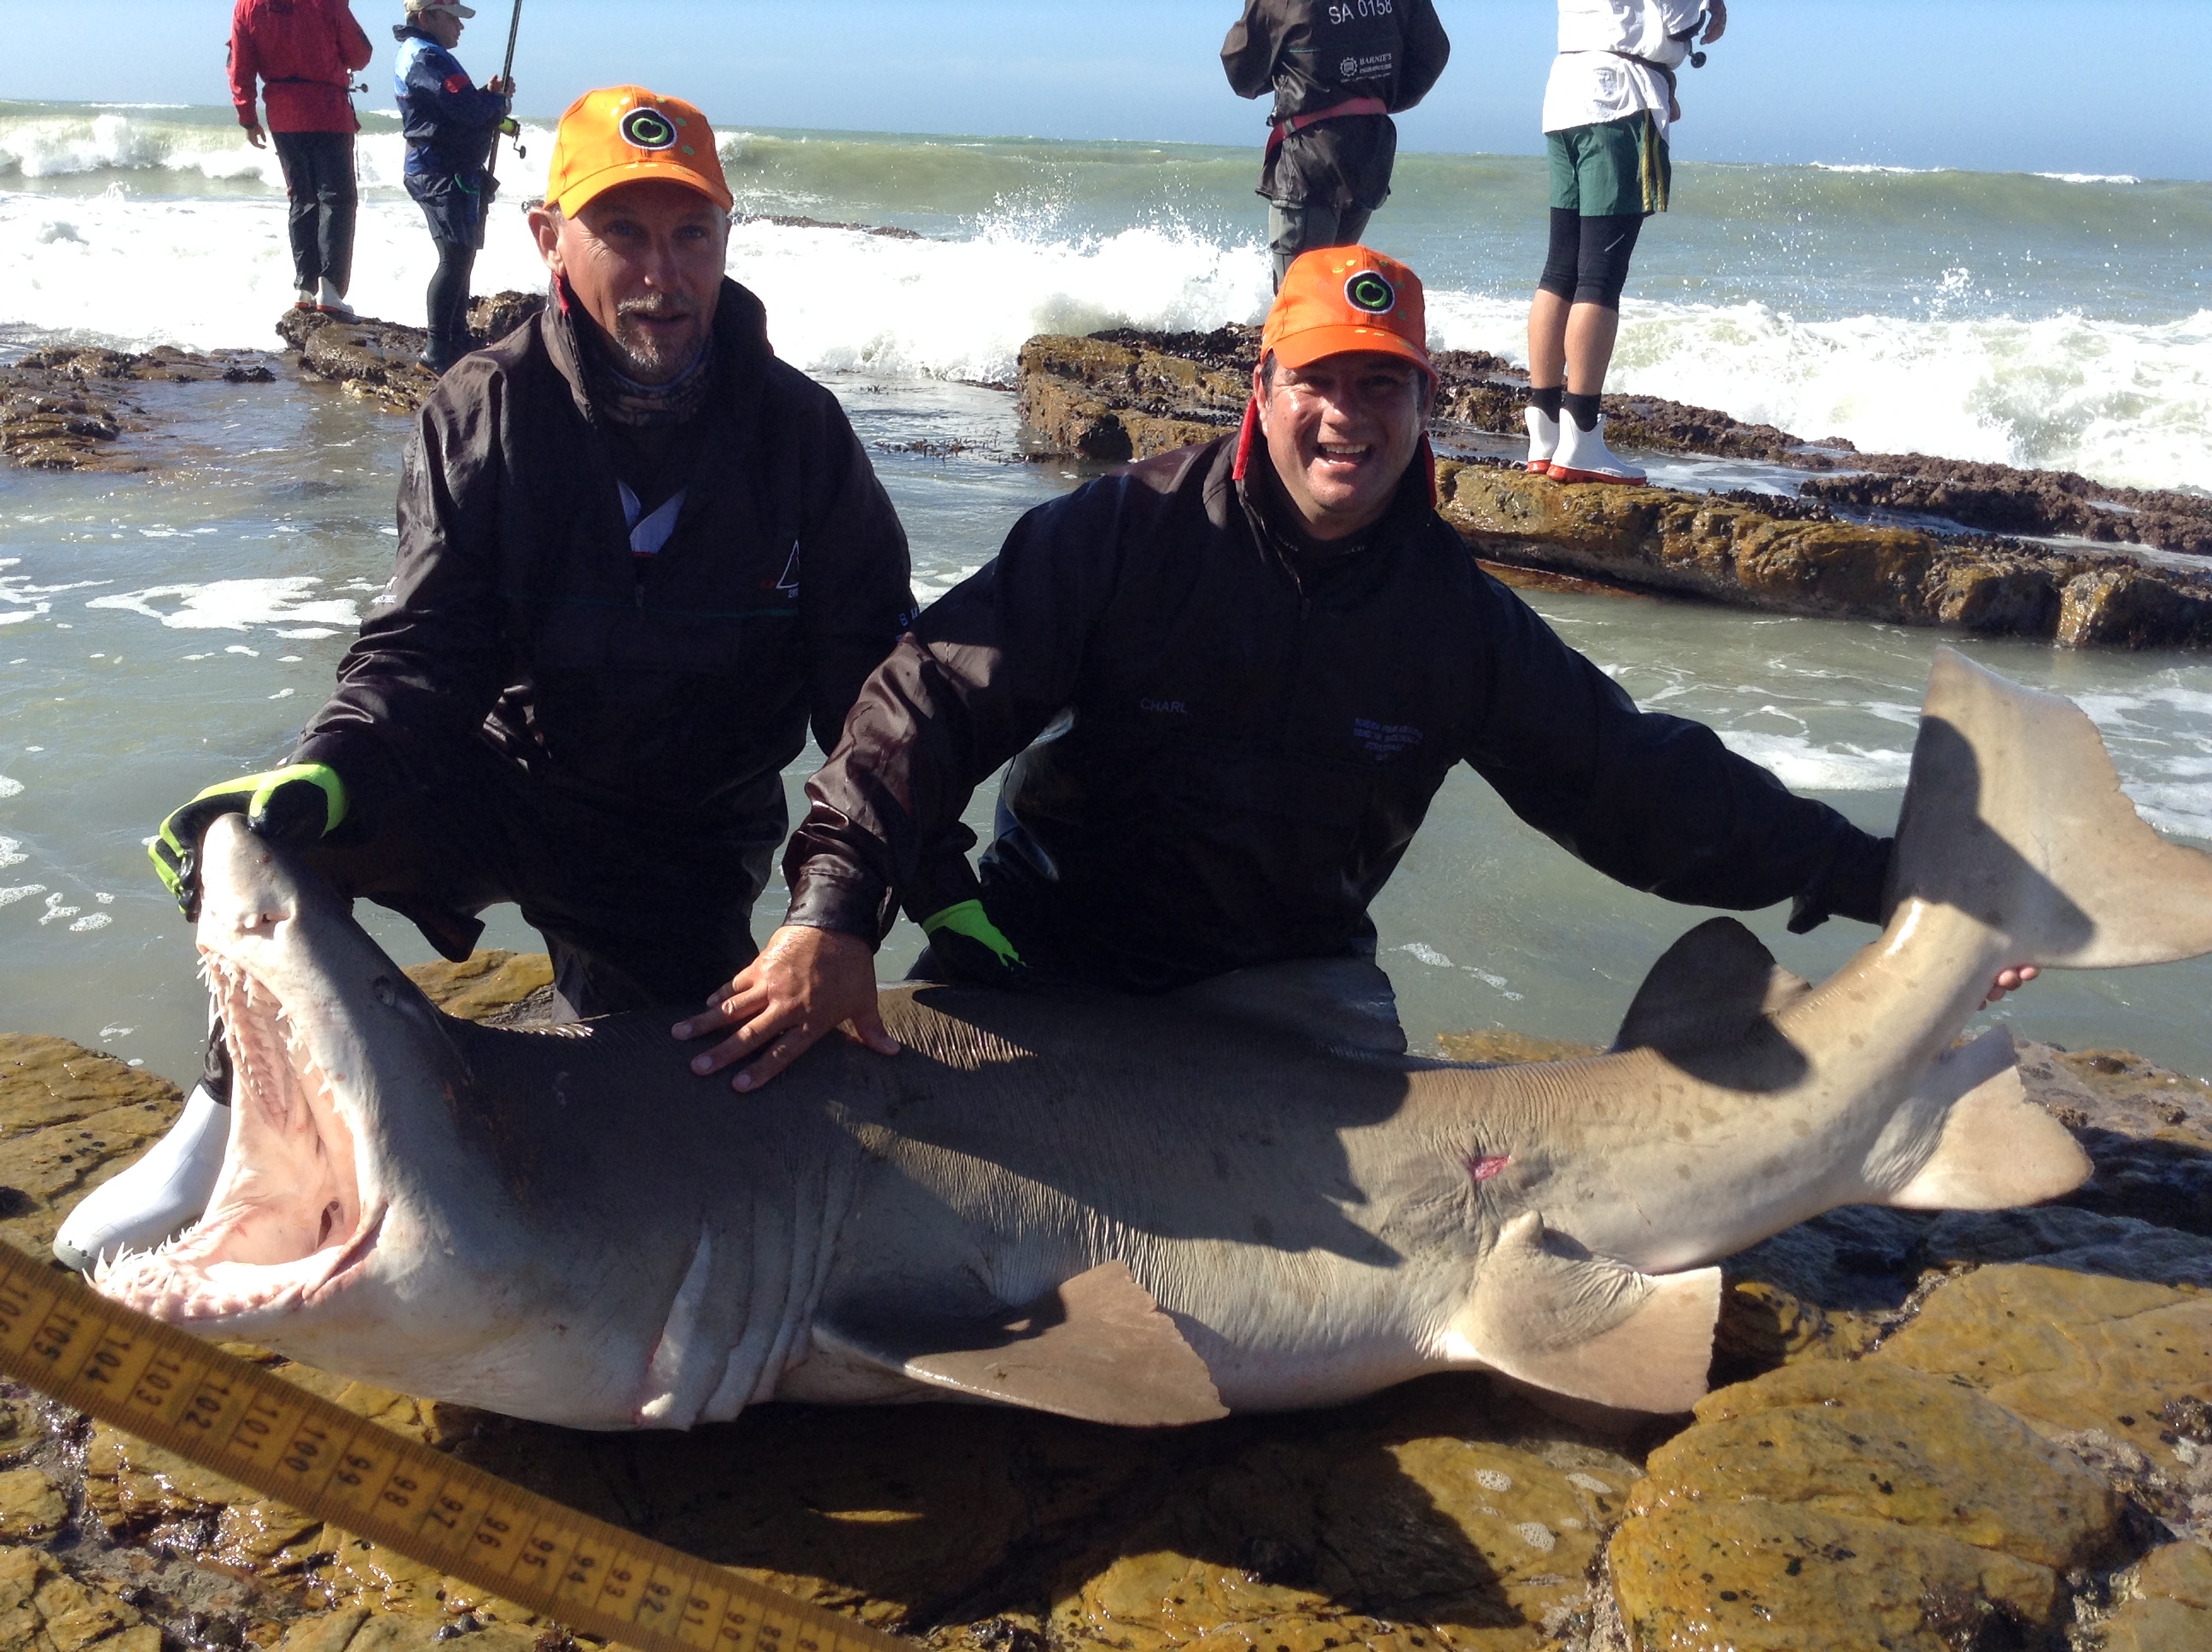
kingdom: Animalia
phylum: Chordata
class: Elasmobranchii
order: Lamniformes
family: Odontaspididae
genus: Carcharias
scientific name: Carcharias taurus
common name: Sand shark
